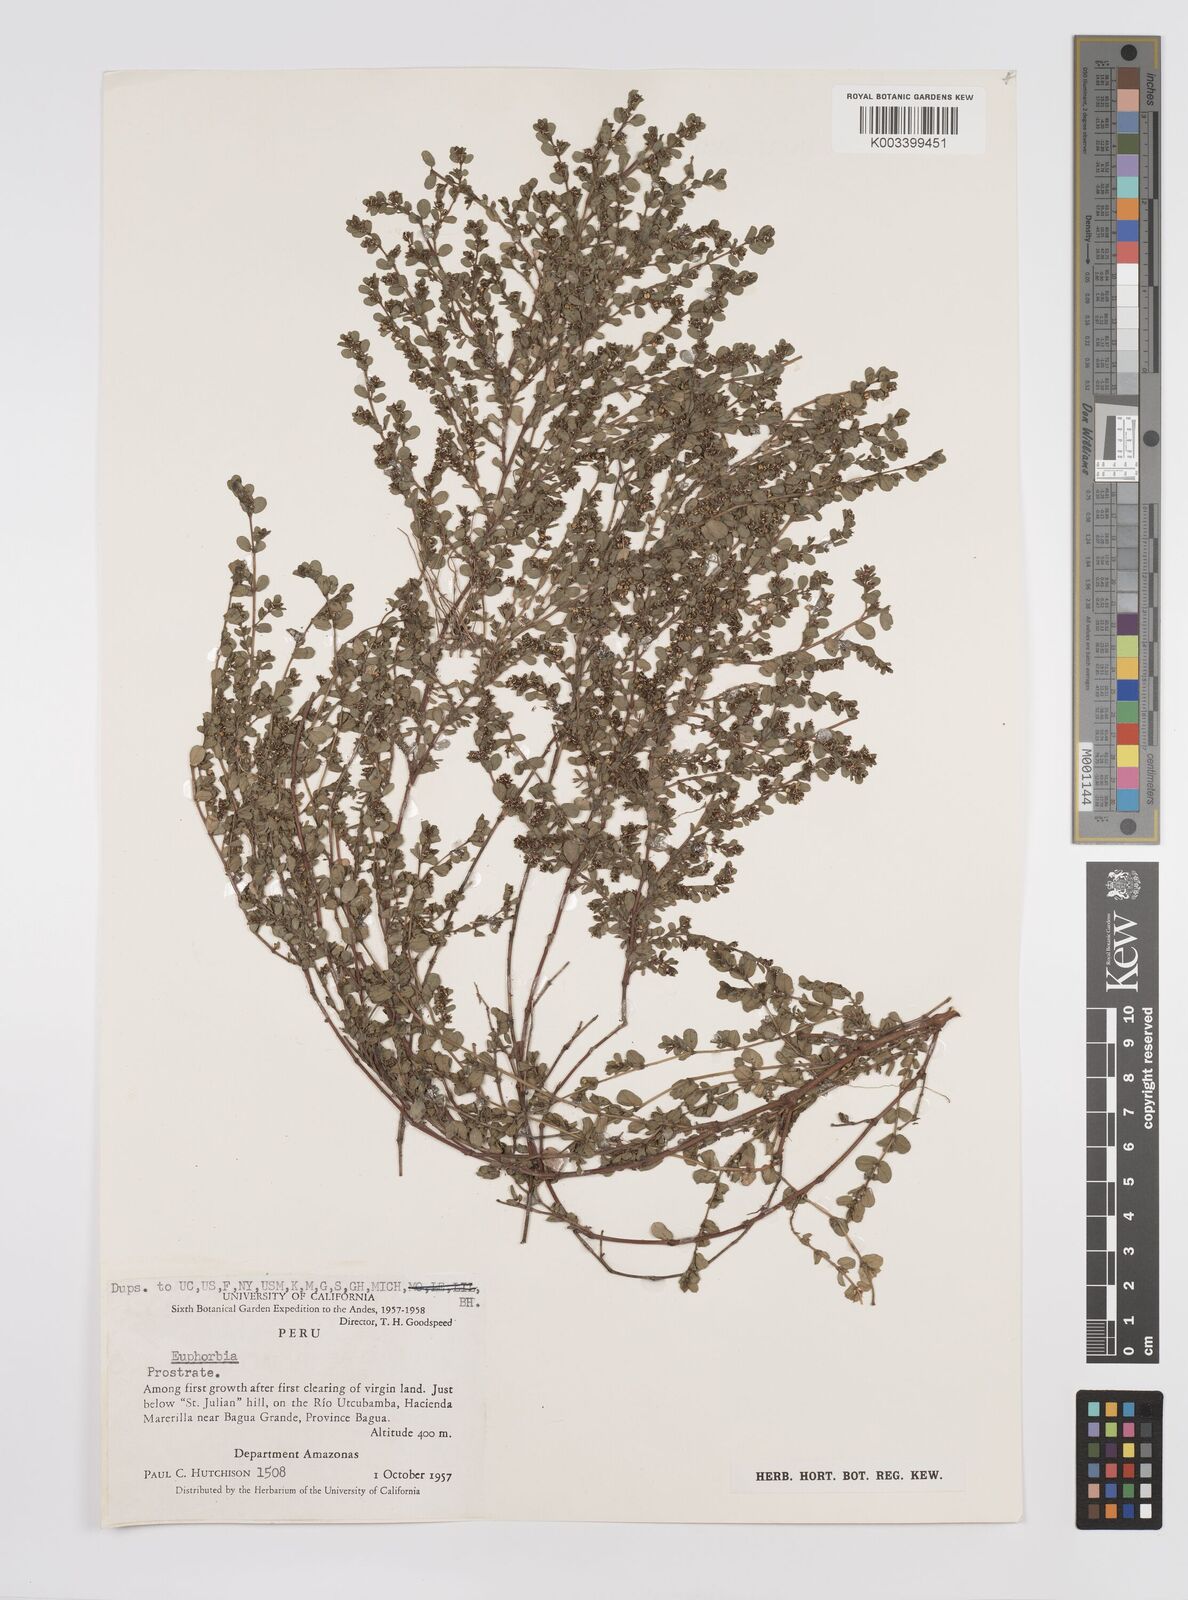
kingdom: Plantae
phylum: Tracheophyta
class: Magnoliopsida
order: Malpighiales
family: Euphorbiaceae
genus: Euphorbia
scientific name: Euphorbia
